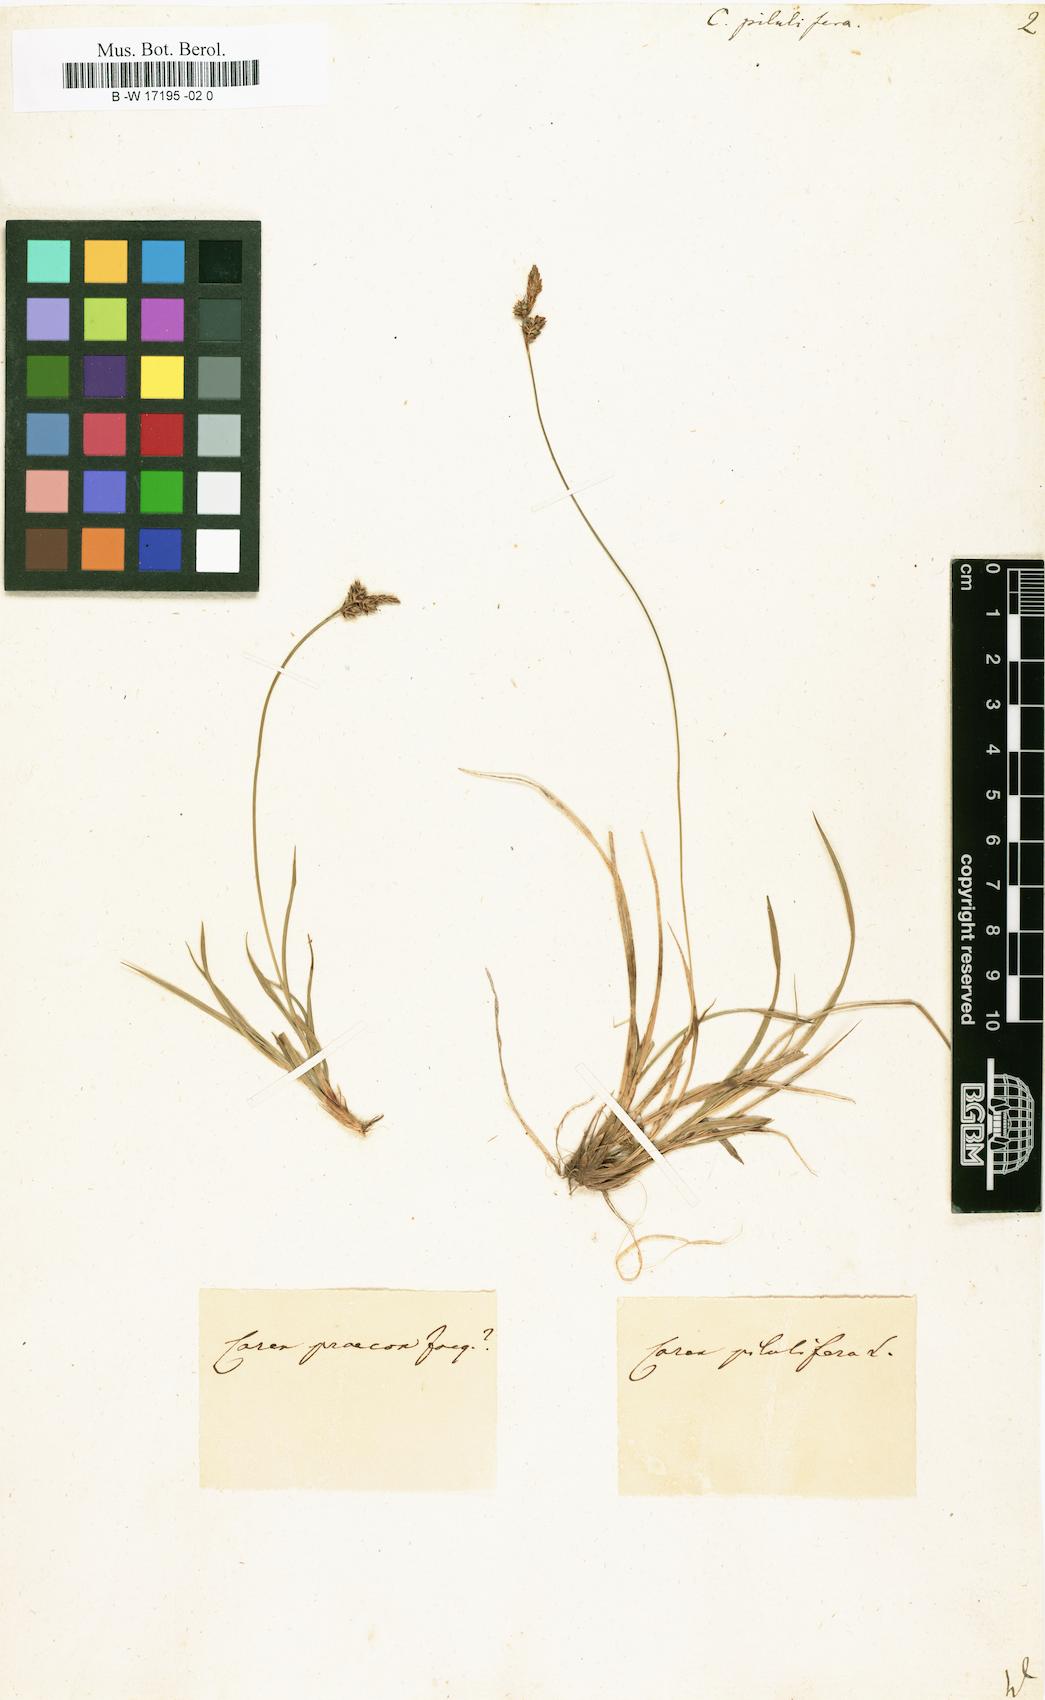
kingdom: Plantae
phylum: Tracheophyta
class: Liliopsida
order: Poales
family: Cyperaceae
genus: Carex
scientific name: Carex pilulifera
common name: Pill sedge
